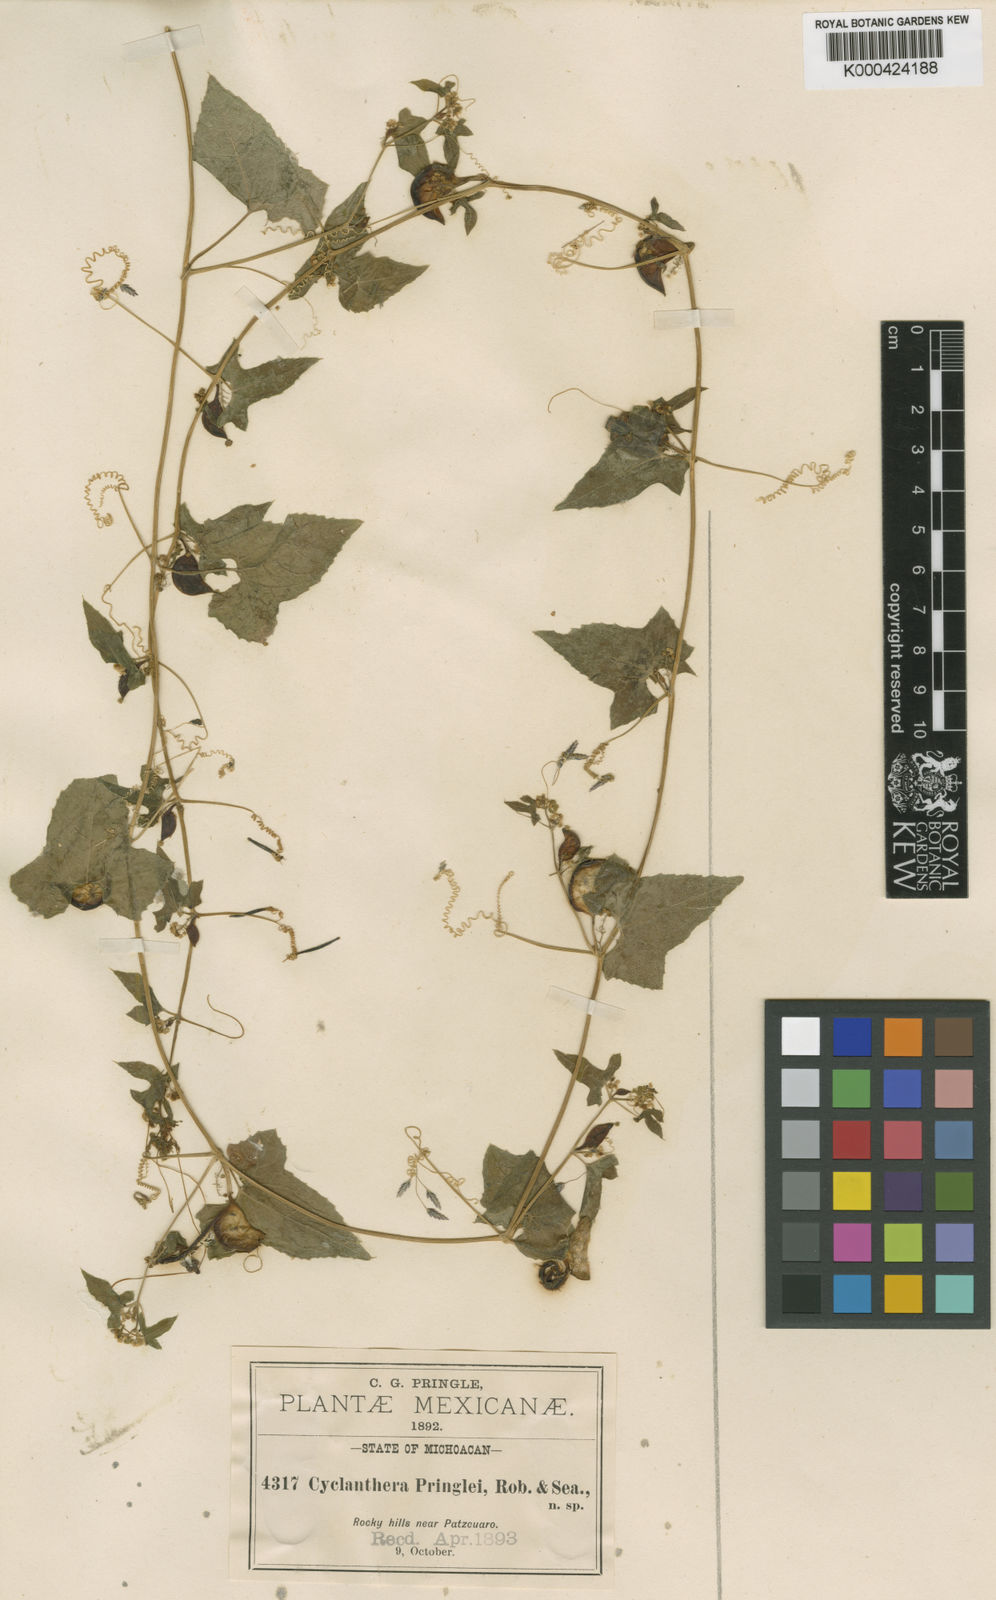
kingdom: Plantae
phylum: Tracheophyta
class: Magnoliopsida
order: Cucurbitales
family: Cucurbitaceae
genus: Cyclanthera
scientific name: Cyclanthera hastata
